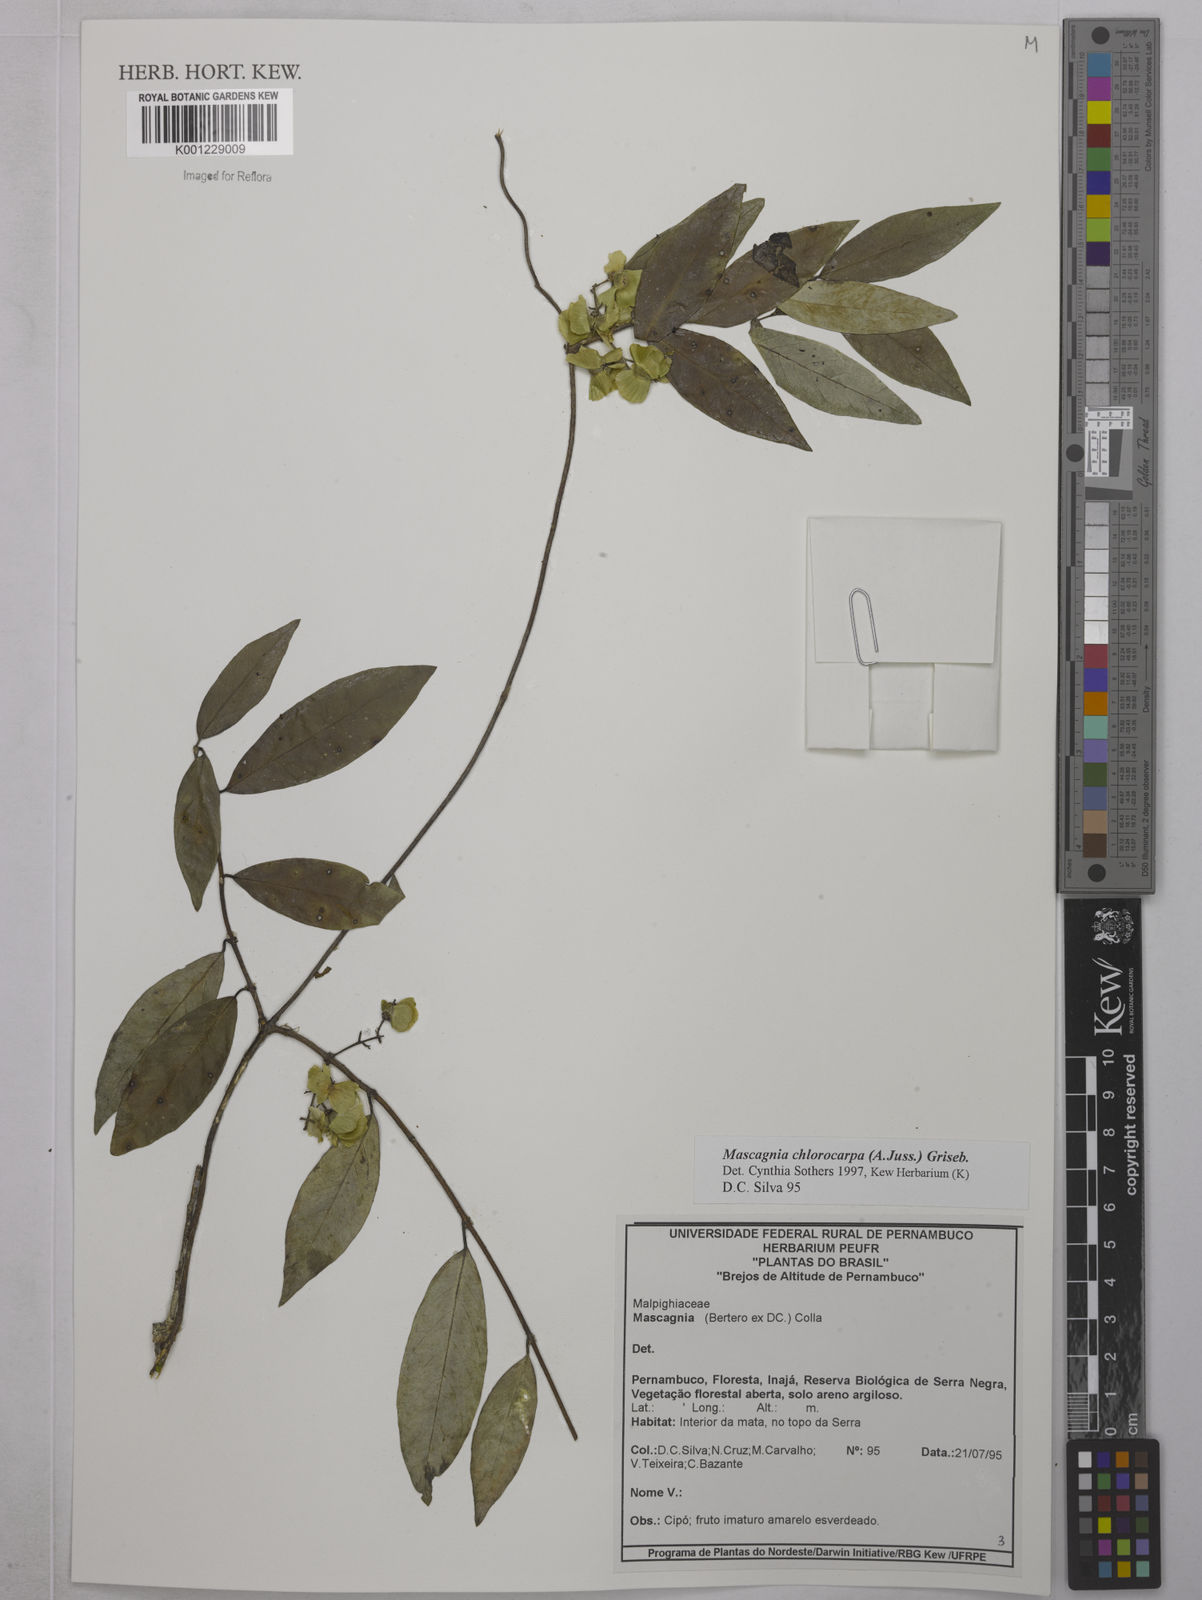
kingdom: Plantae
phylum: Tracheophyta
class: Magnoliopsida
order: Malpighiales
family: Malpighiaceae
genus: Carolus
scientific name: Carolus chlorocarpus
